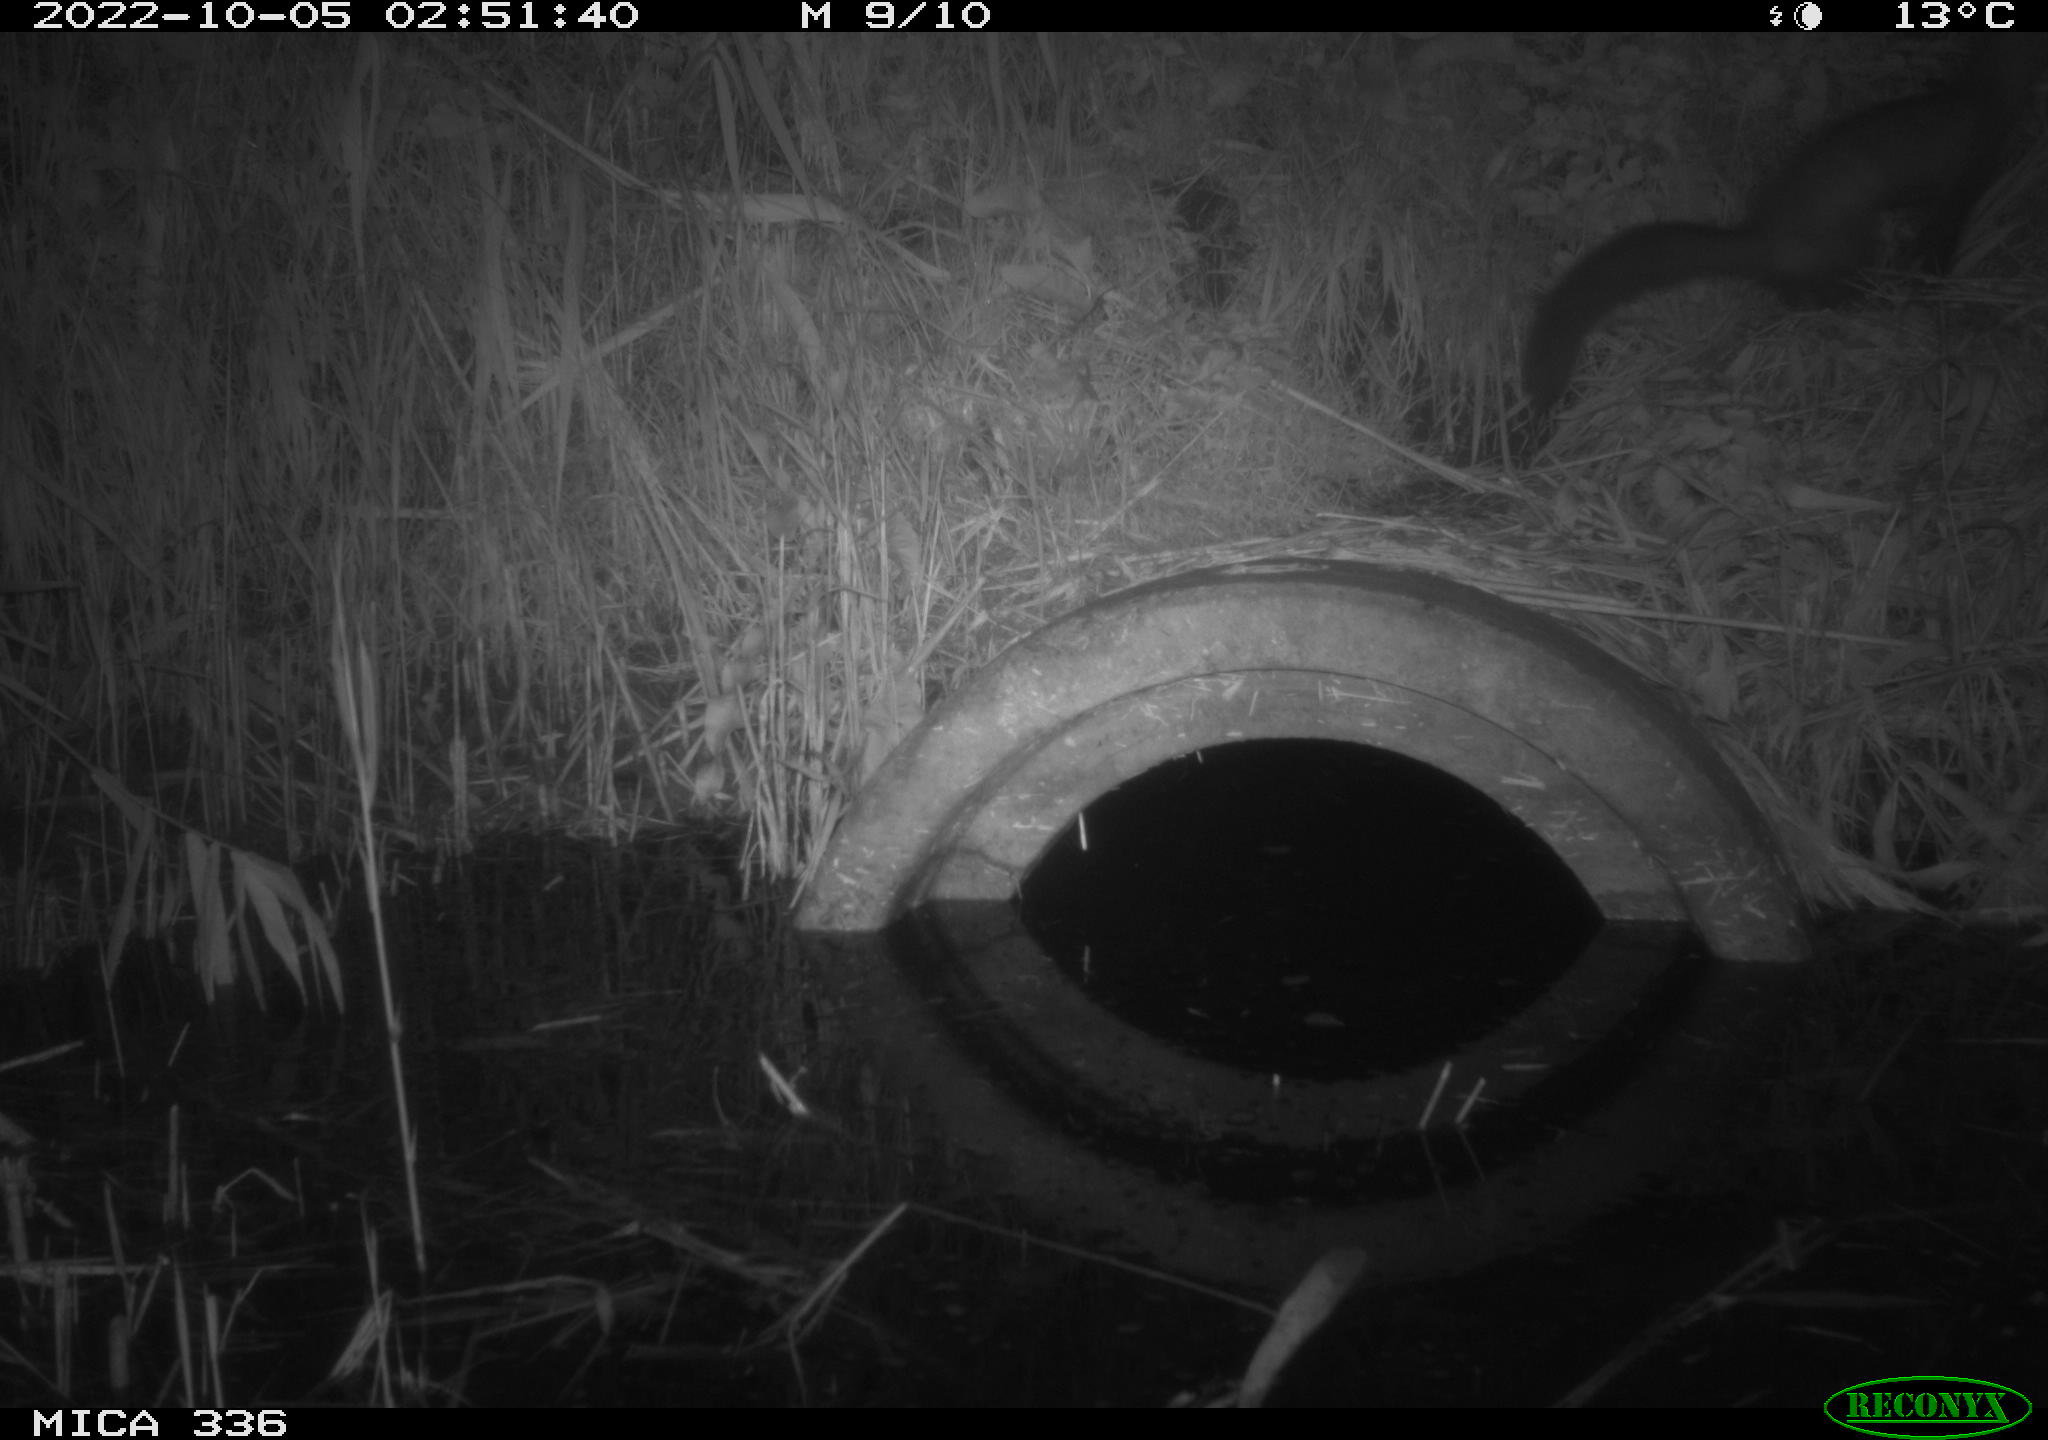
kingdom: Animalia
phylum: Chordata
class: Mammalia
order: Carnivora
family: Mustelidae
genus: Martes
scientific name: Martes foina
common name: Beech marten
